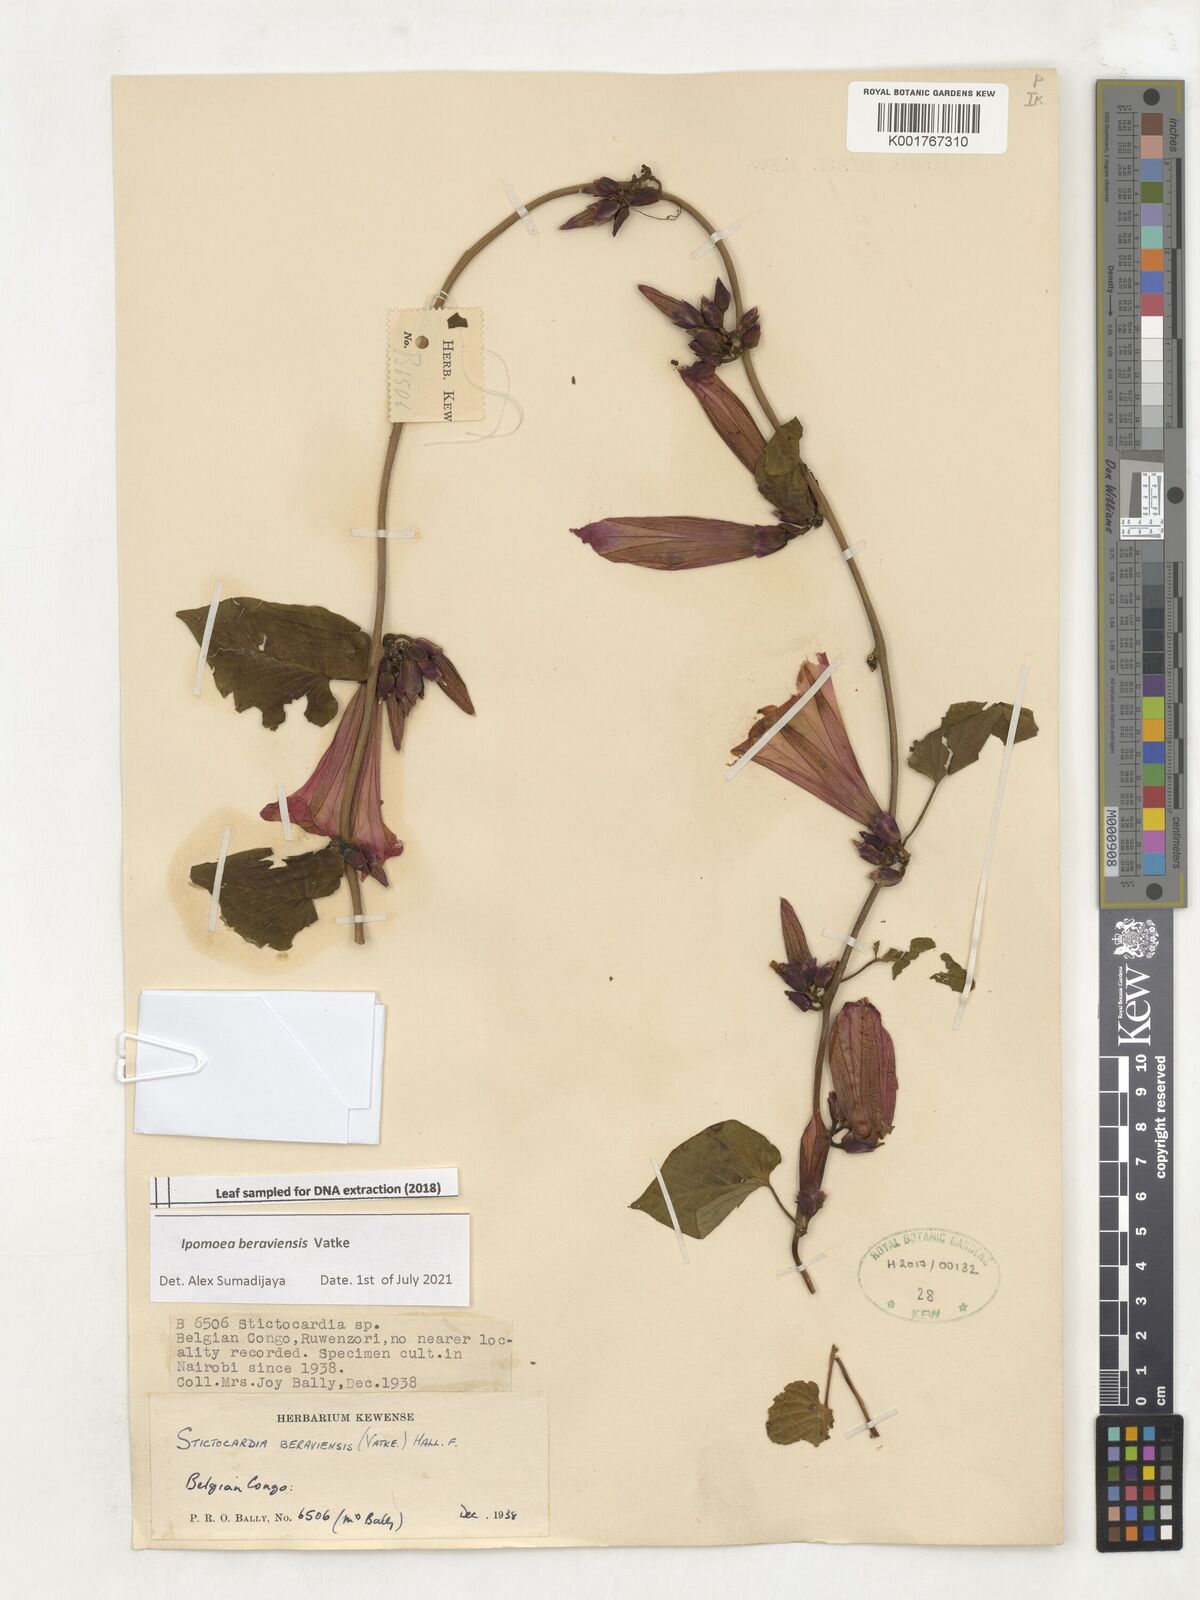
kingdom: Plantae
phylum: Tracheophyta
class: Magnoliopsida
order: Solanales
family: Convolvulaceae
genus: Stictocardia
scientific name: Stictocardia beraviensis
